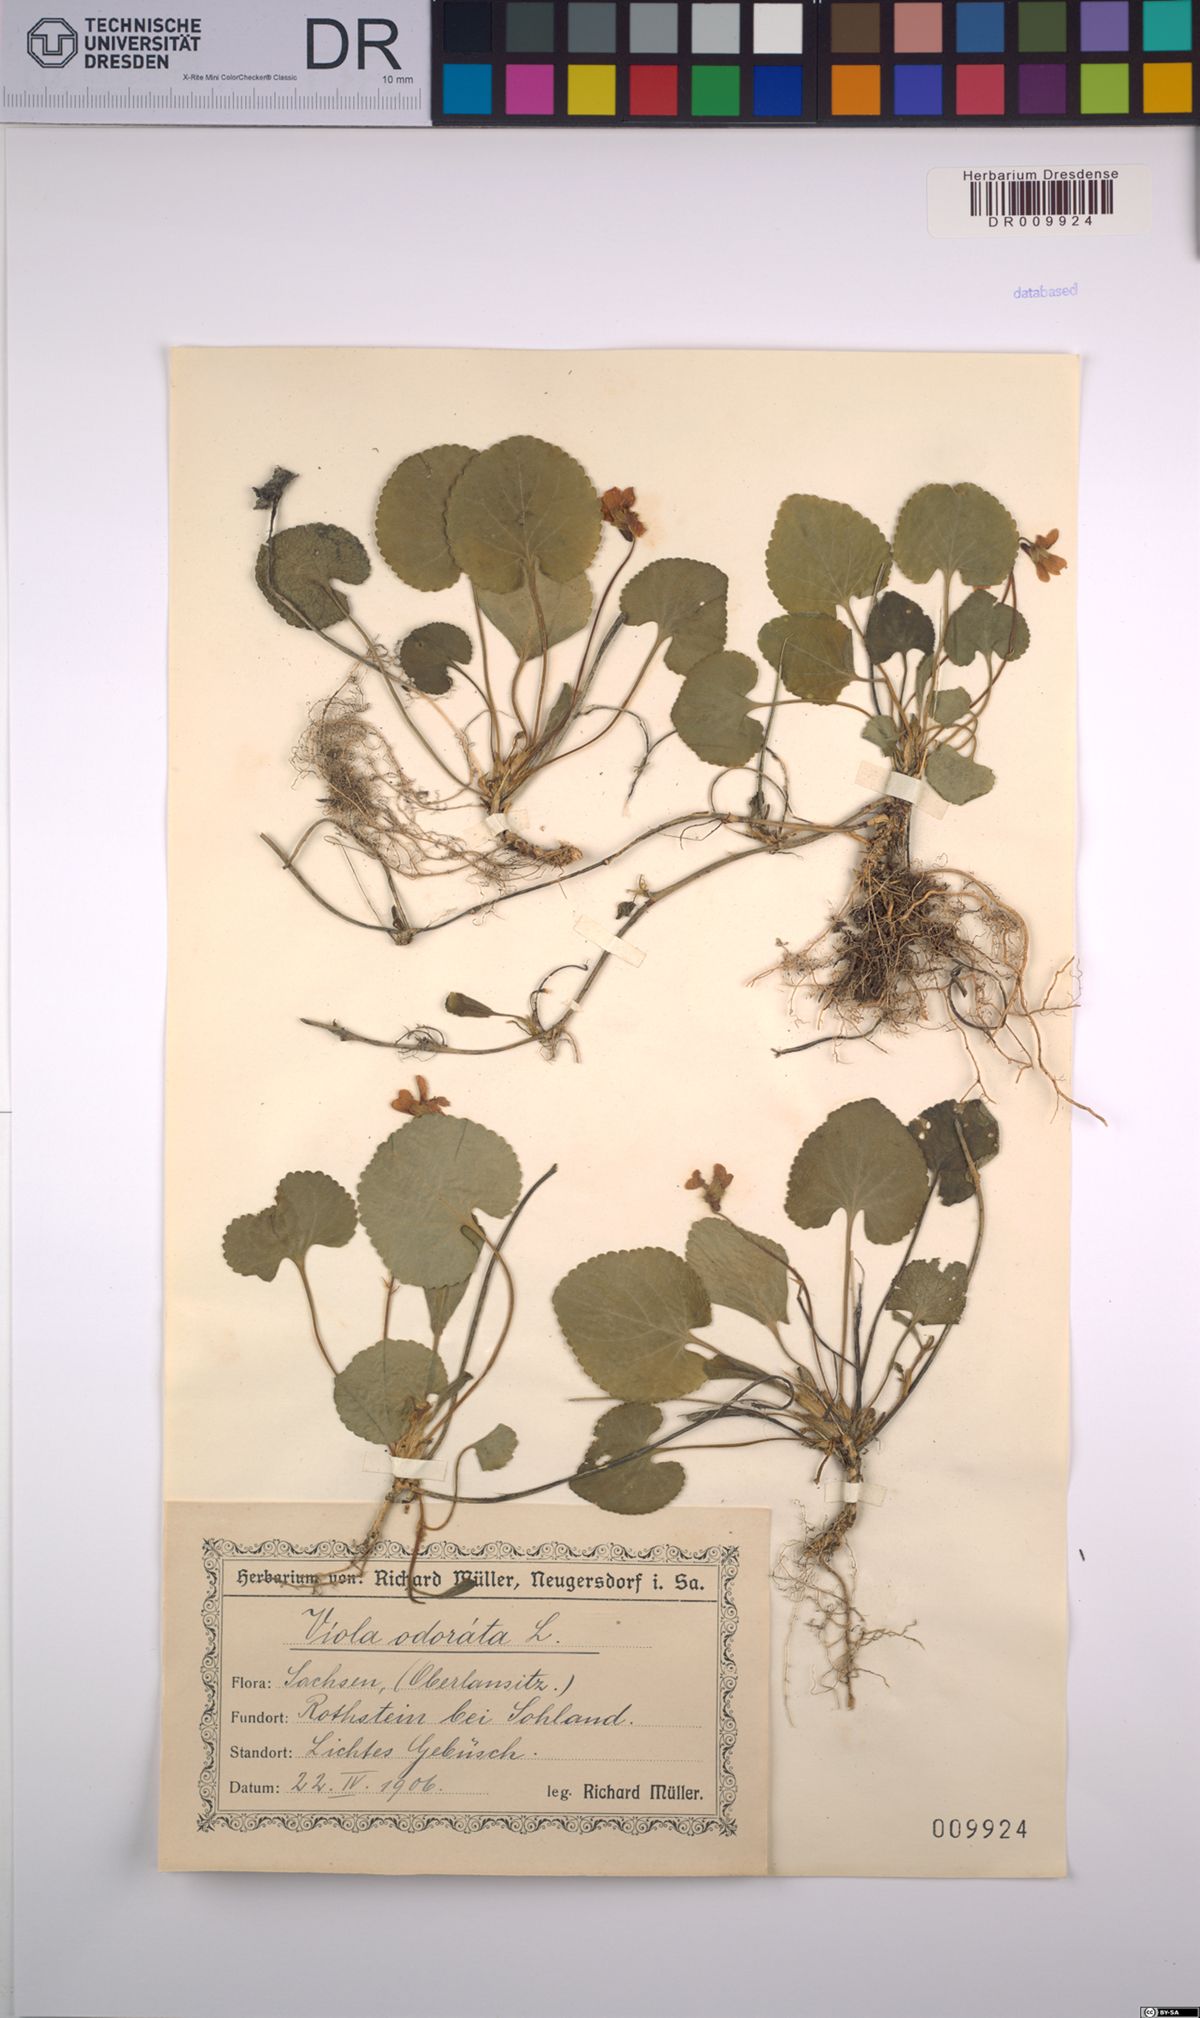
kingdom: Plantae
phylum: Tracheophyta
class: Magnoliopsida
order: Malpighiales
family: Violaceae
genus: Viola
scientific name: Viola odorata
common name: Sweet violet
